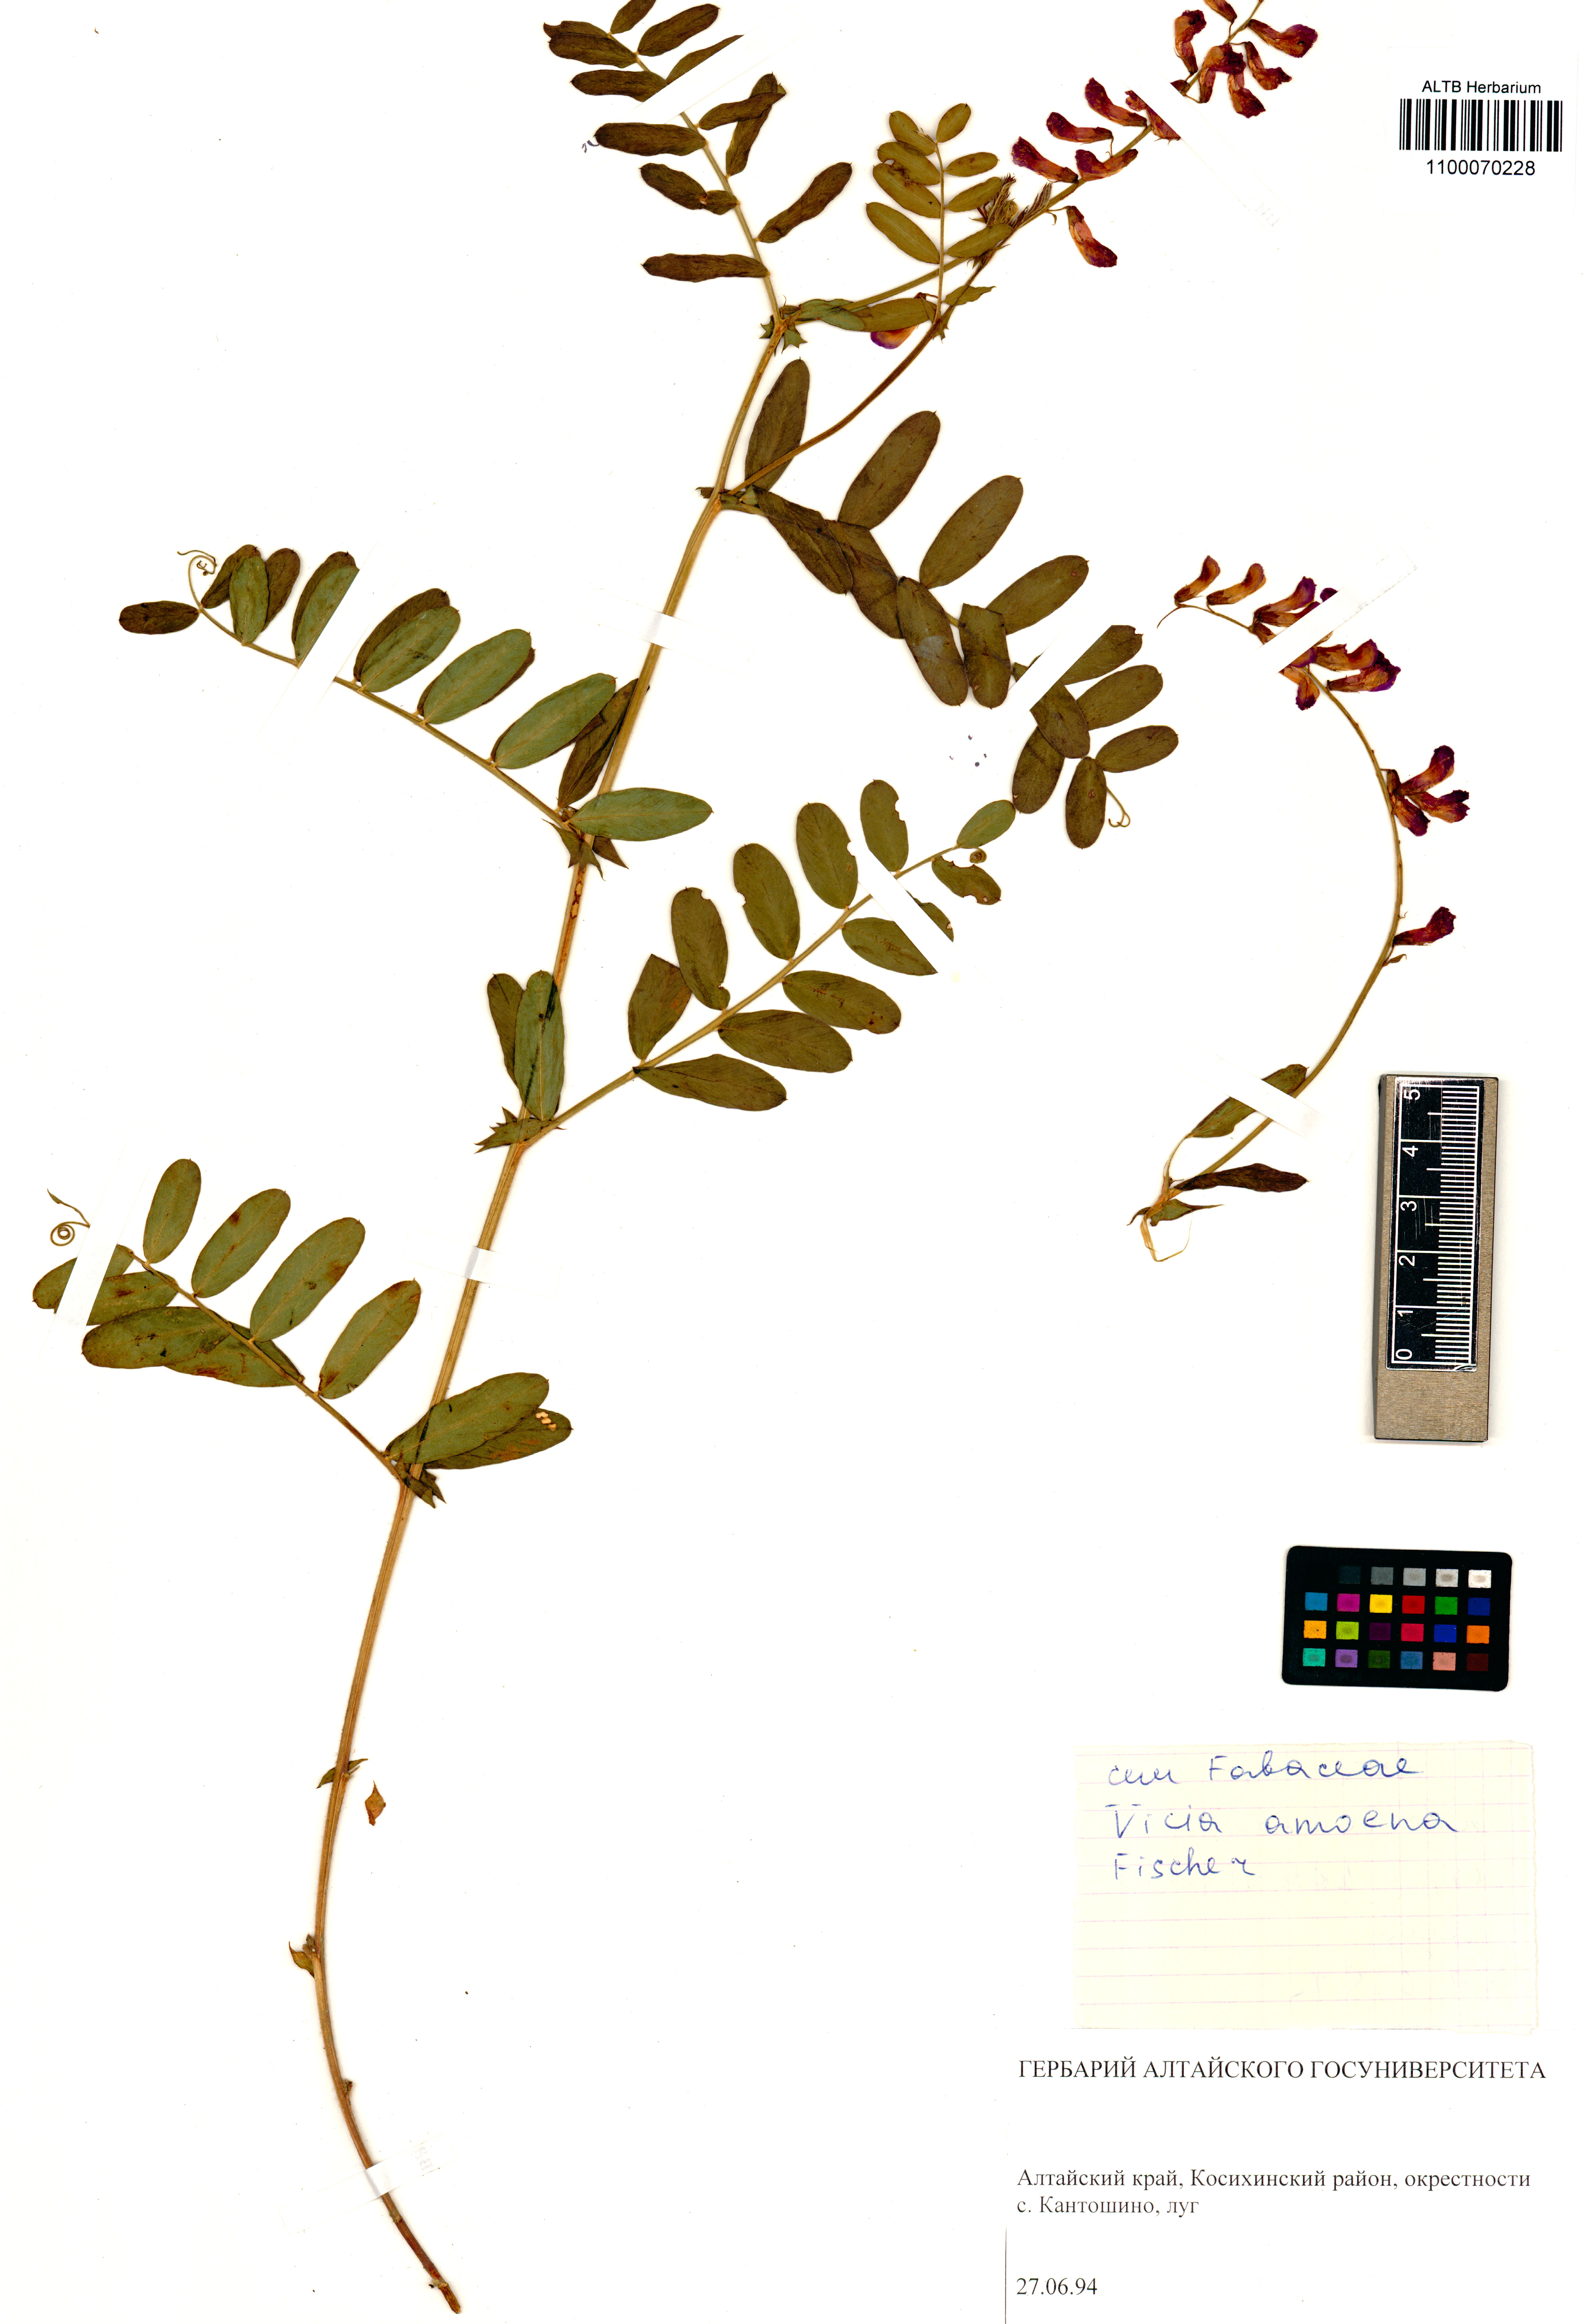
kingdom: Plantae
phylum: Tracheophyta
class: Magnoliopsida
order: Fabales
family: Fabaceae
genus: Vicia
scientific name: Vicia amoena
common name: Cheder ebs
